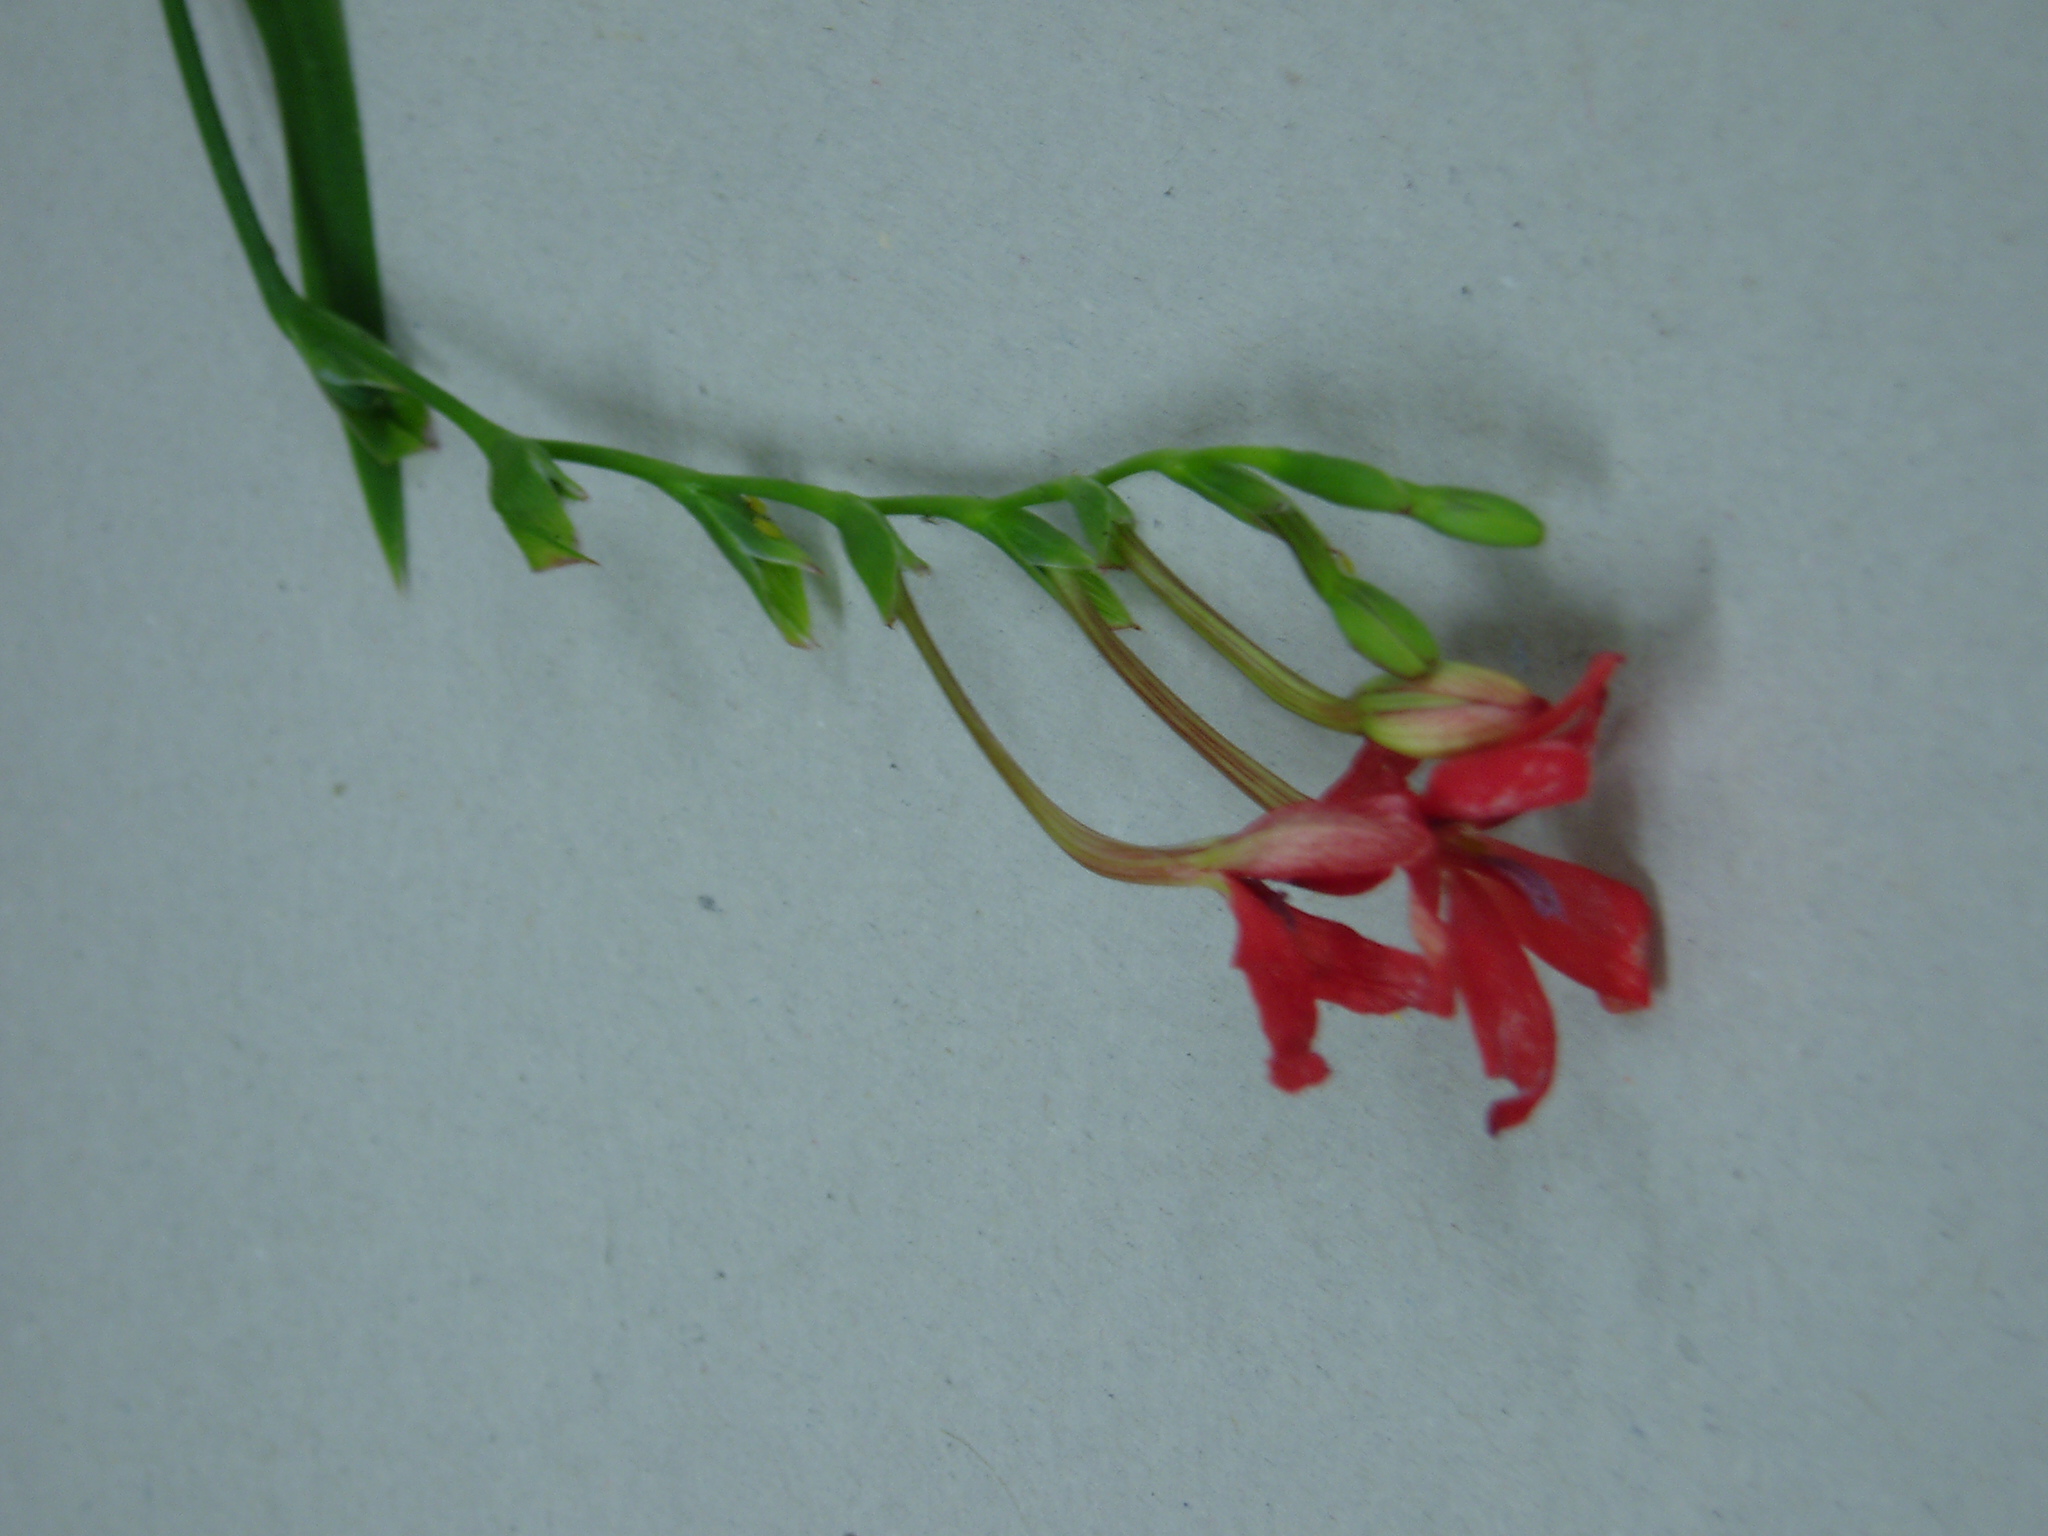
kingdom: Plantae
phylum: Tracheophyta
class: Liliopsida
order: Asparagales
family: Iridaceae
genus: Freesia
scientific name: Freesia laxa
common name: False freesia
